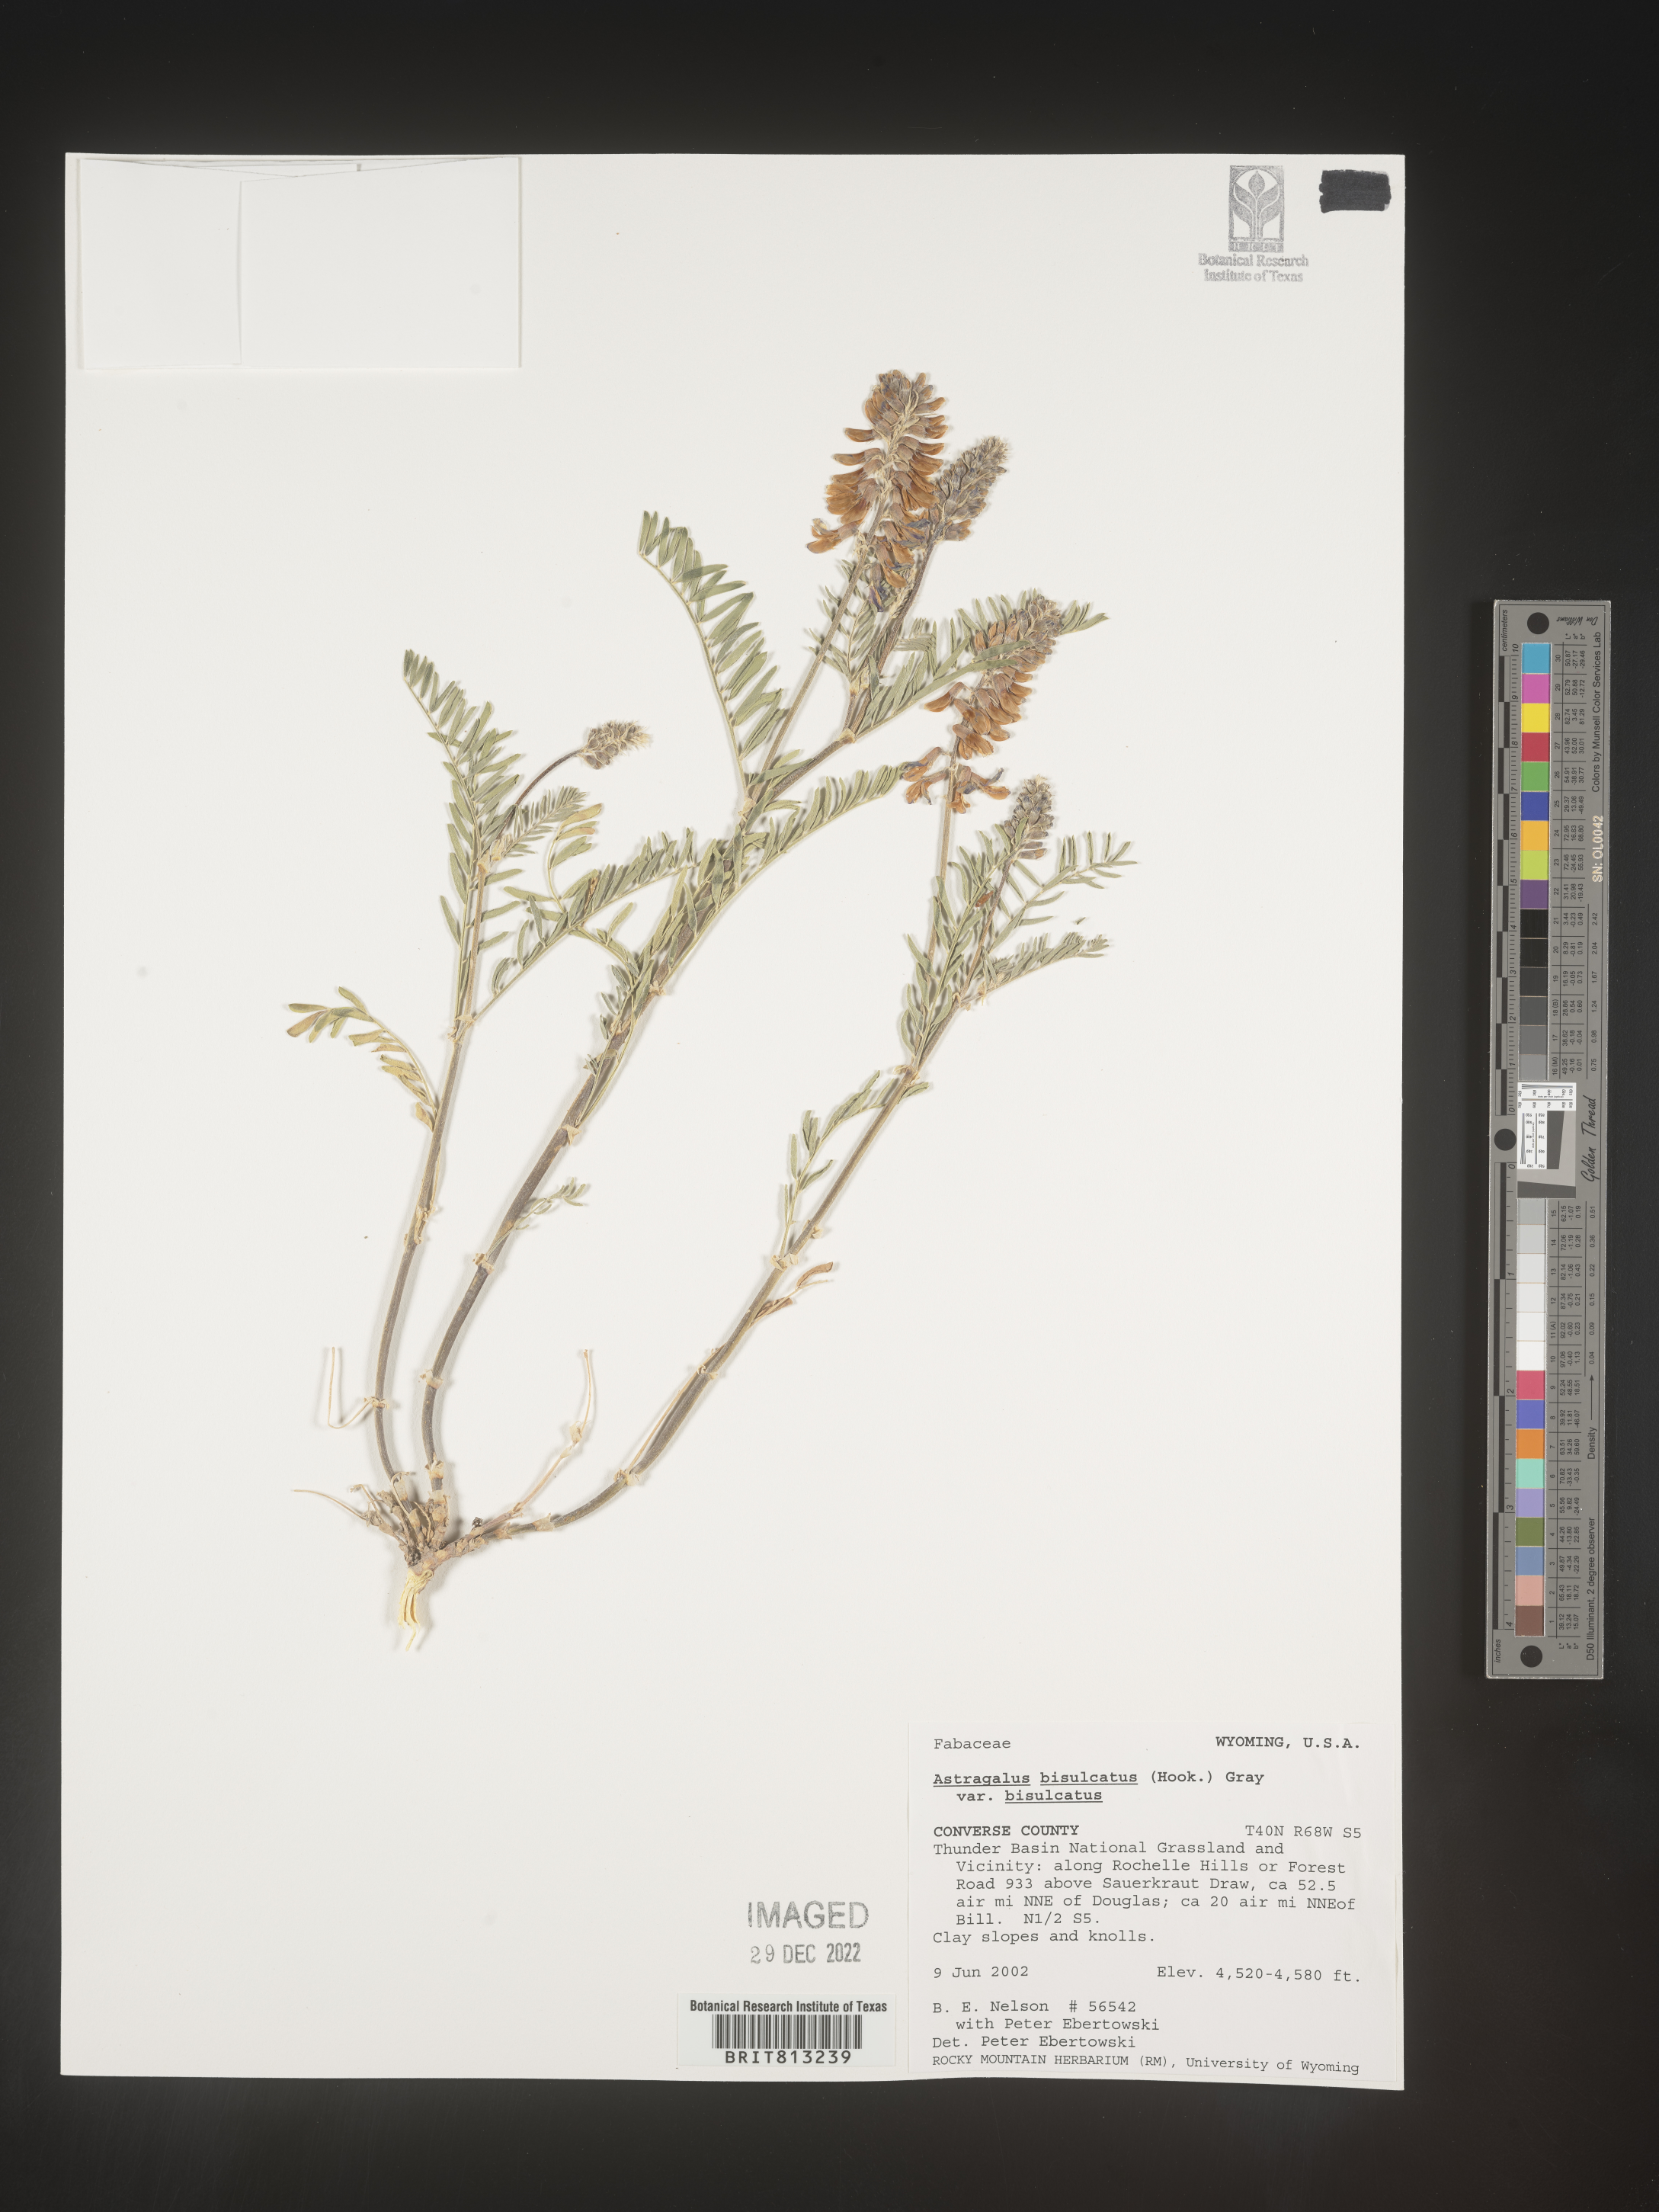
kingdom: Plantae
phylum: Tracheophyta
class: Magnoliopsida
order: Fabales
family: Fabaceae
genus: Astragalus
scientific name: Astragalus bisulcatus
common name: Two-groove milk-vetch
